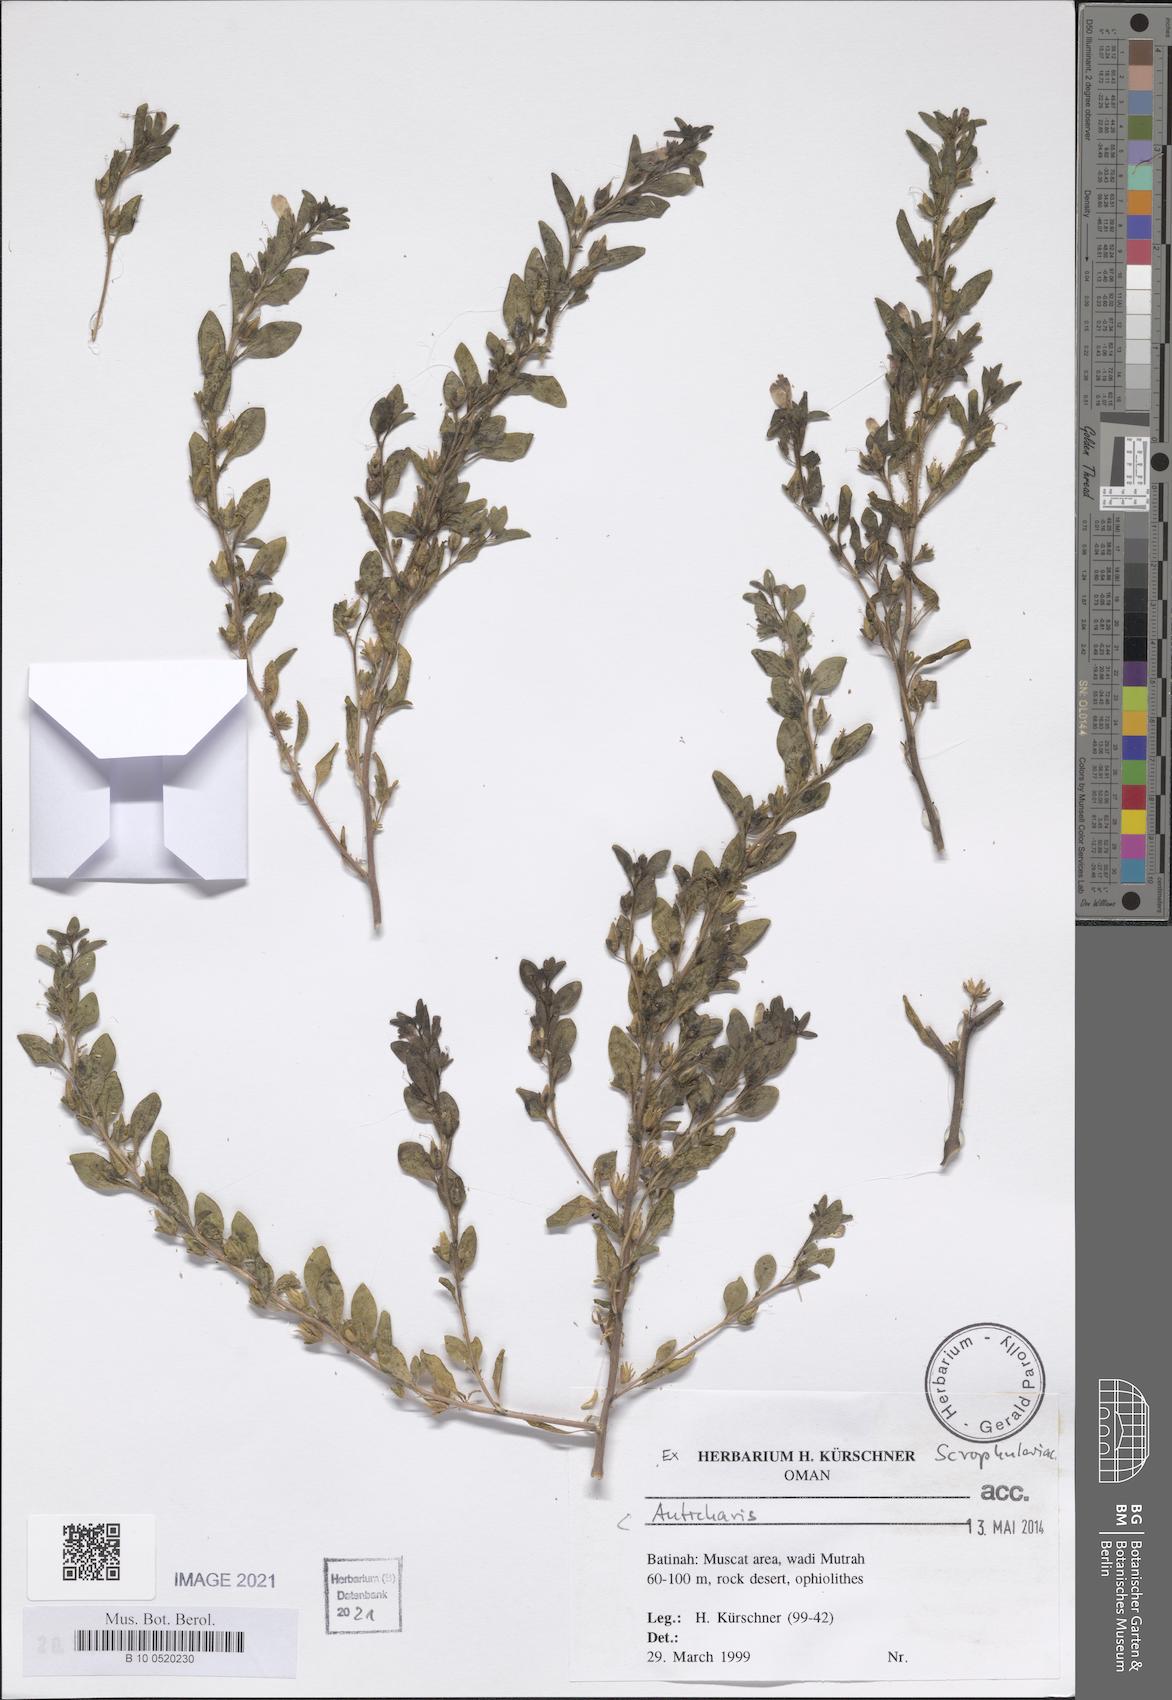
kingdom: Plantae
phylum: Tracheophyta
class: Magnoliopsida
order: Lamiales
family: Scrophulariaceae
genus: Anticharis
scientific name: Anticharis
